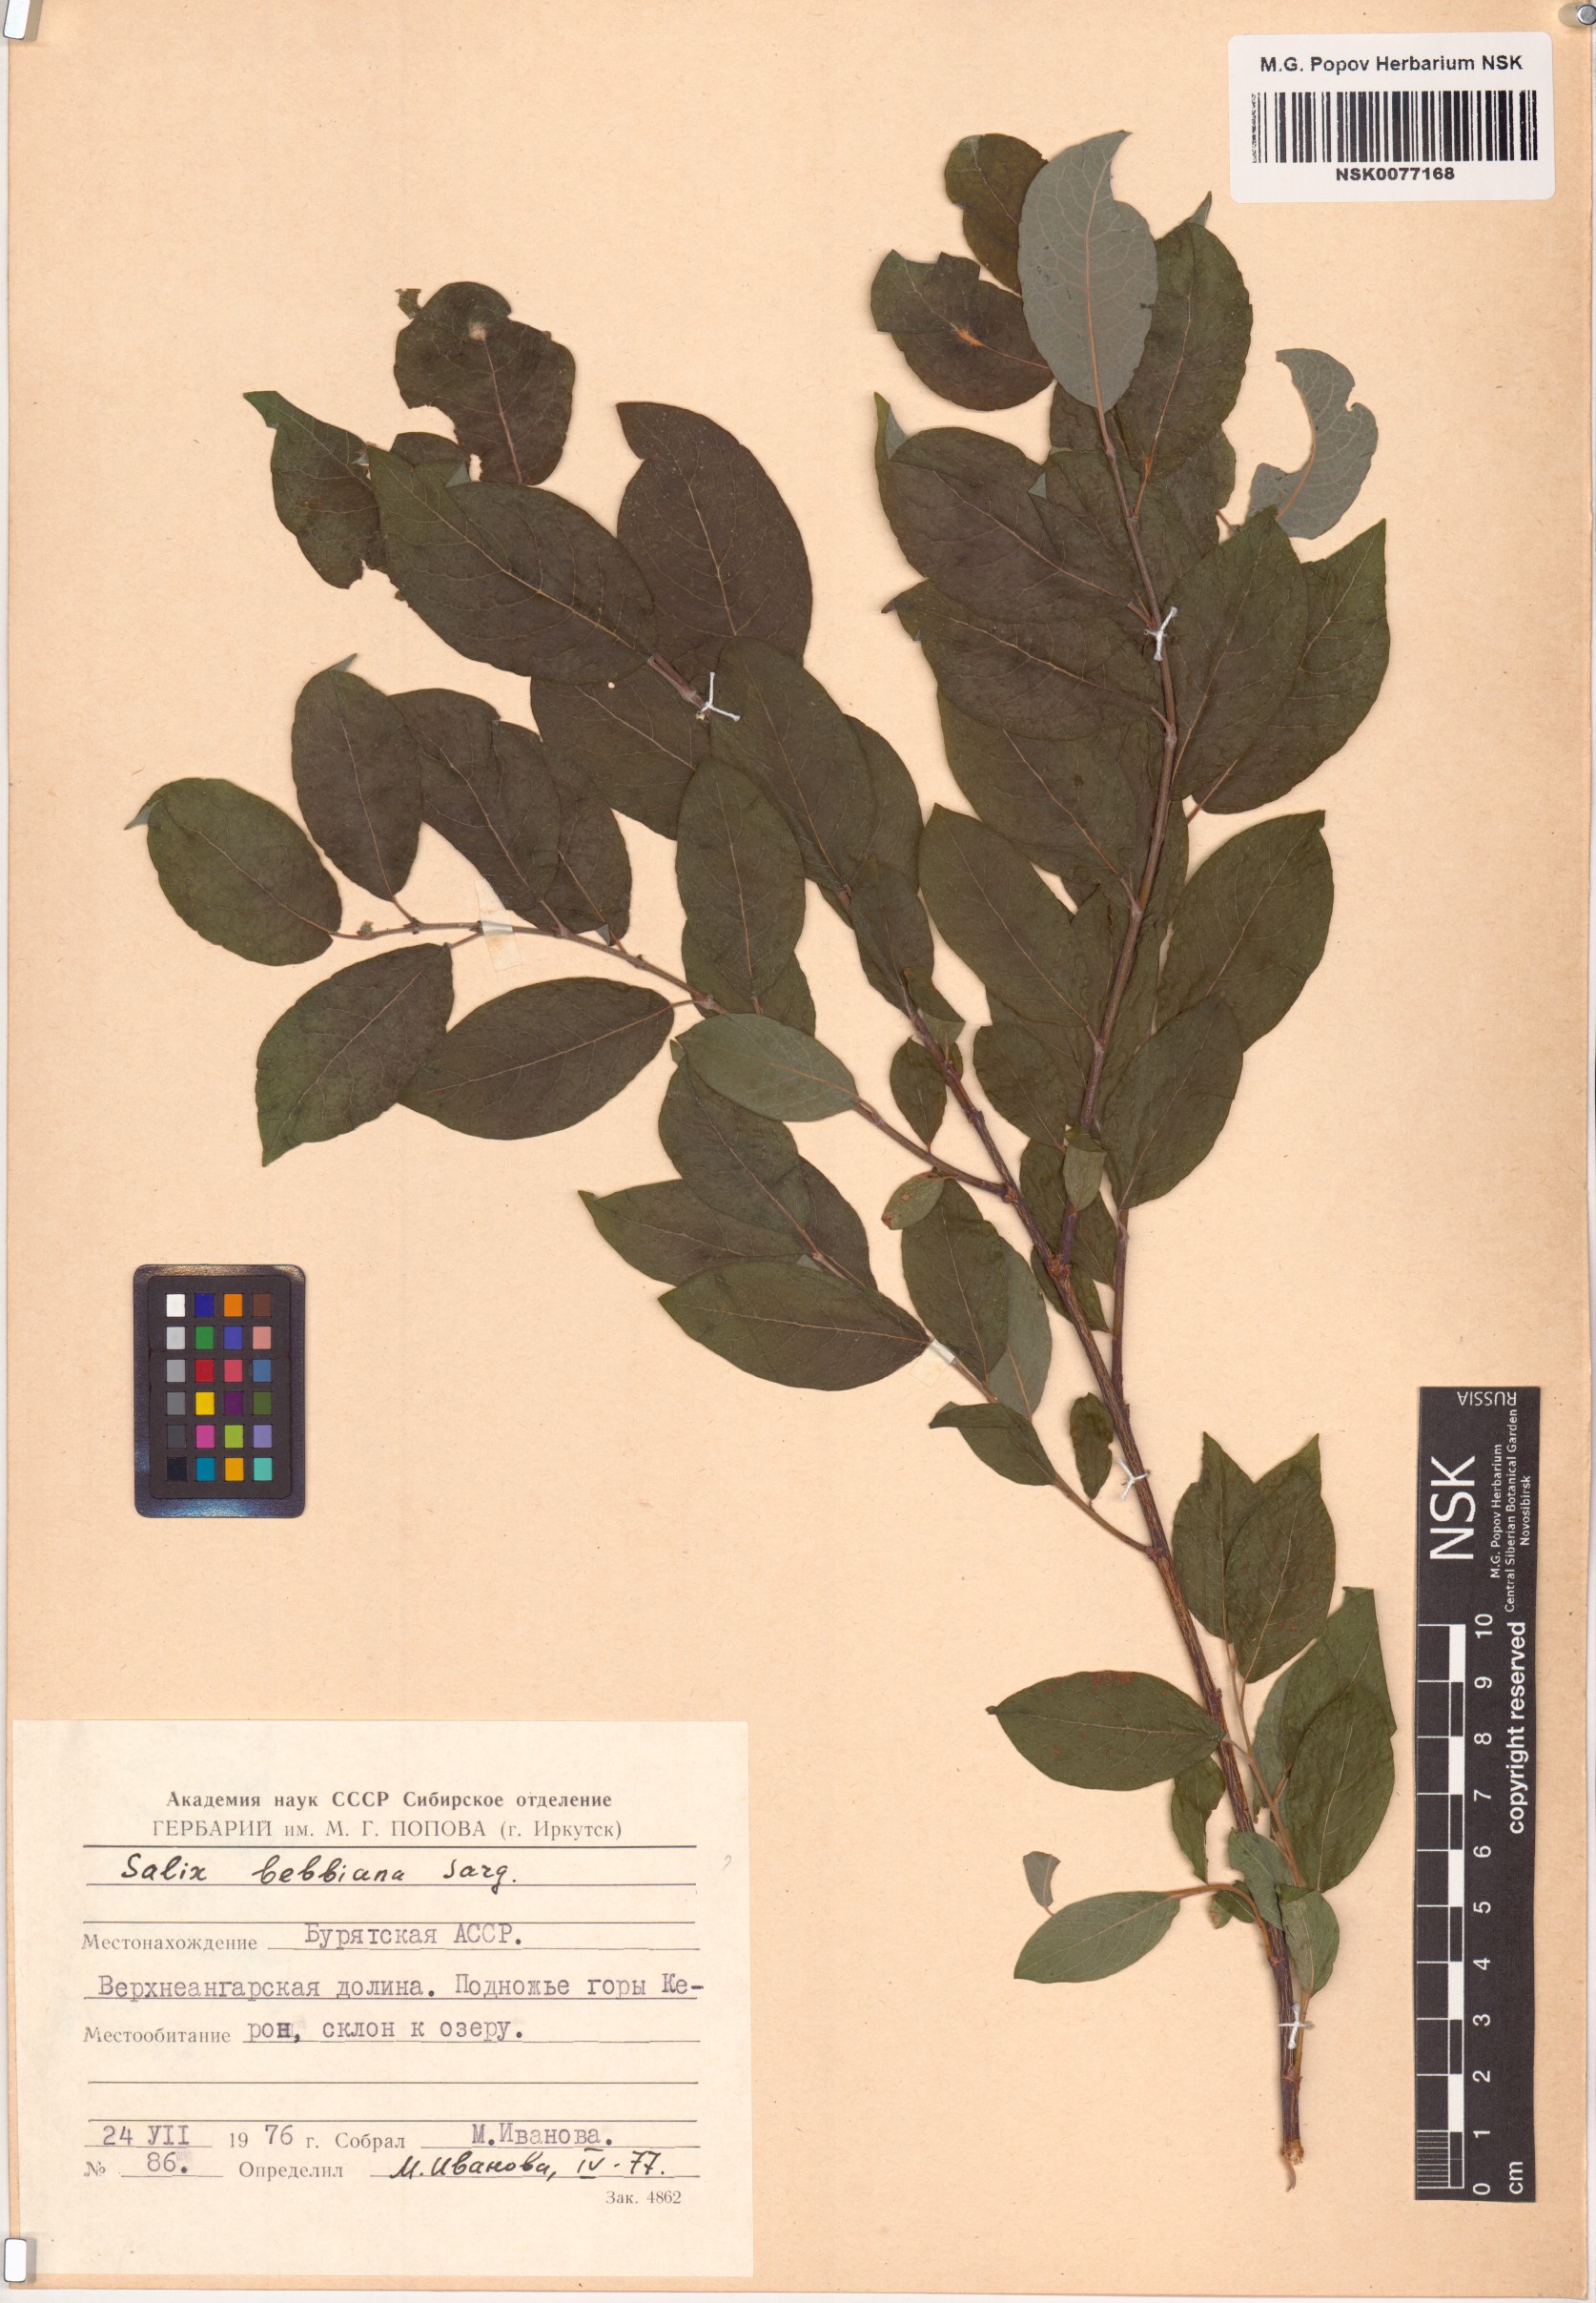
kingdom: Plantae
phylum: Tracheophyta
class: Magnoliopsida
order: Malpighiales
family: Salicaceae
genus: Salix
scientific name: Salix bebbiana
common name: Bebb's willow
